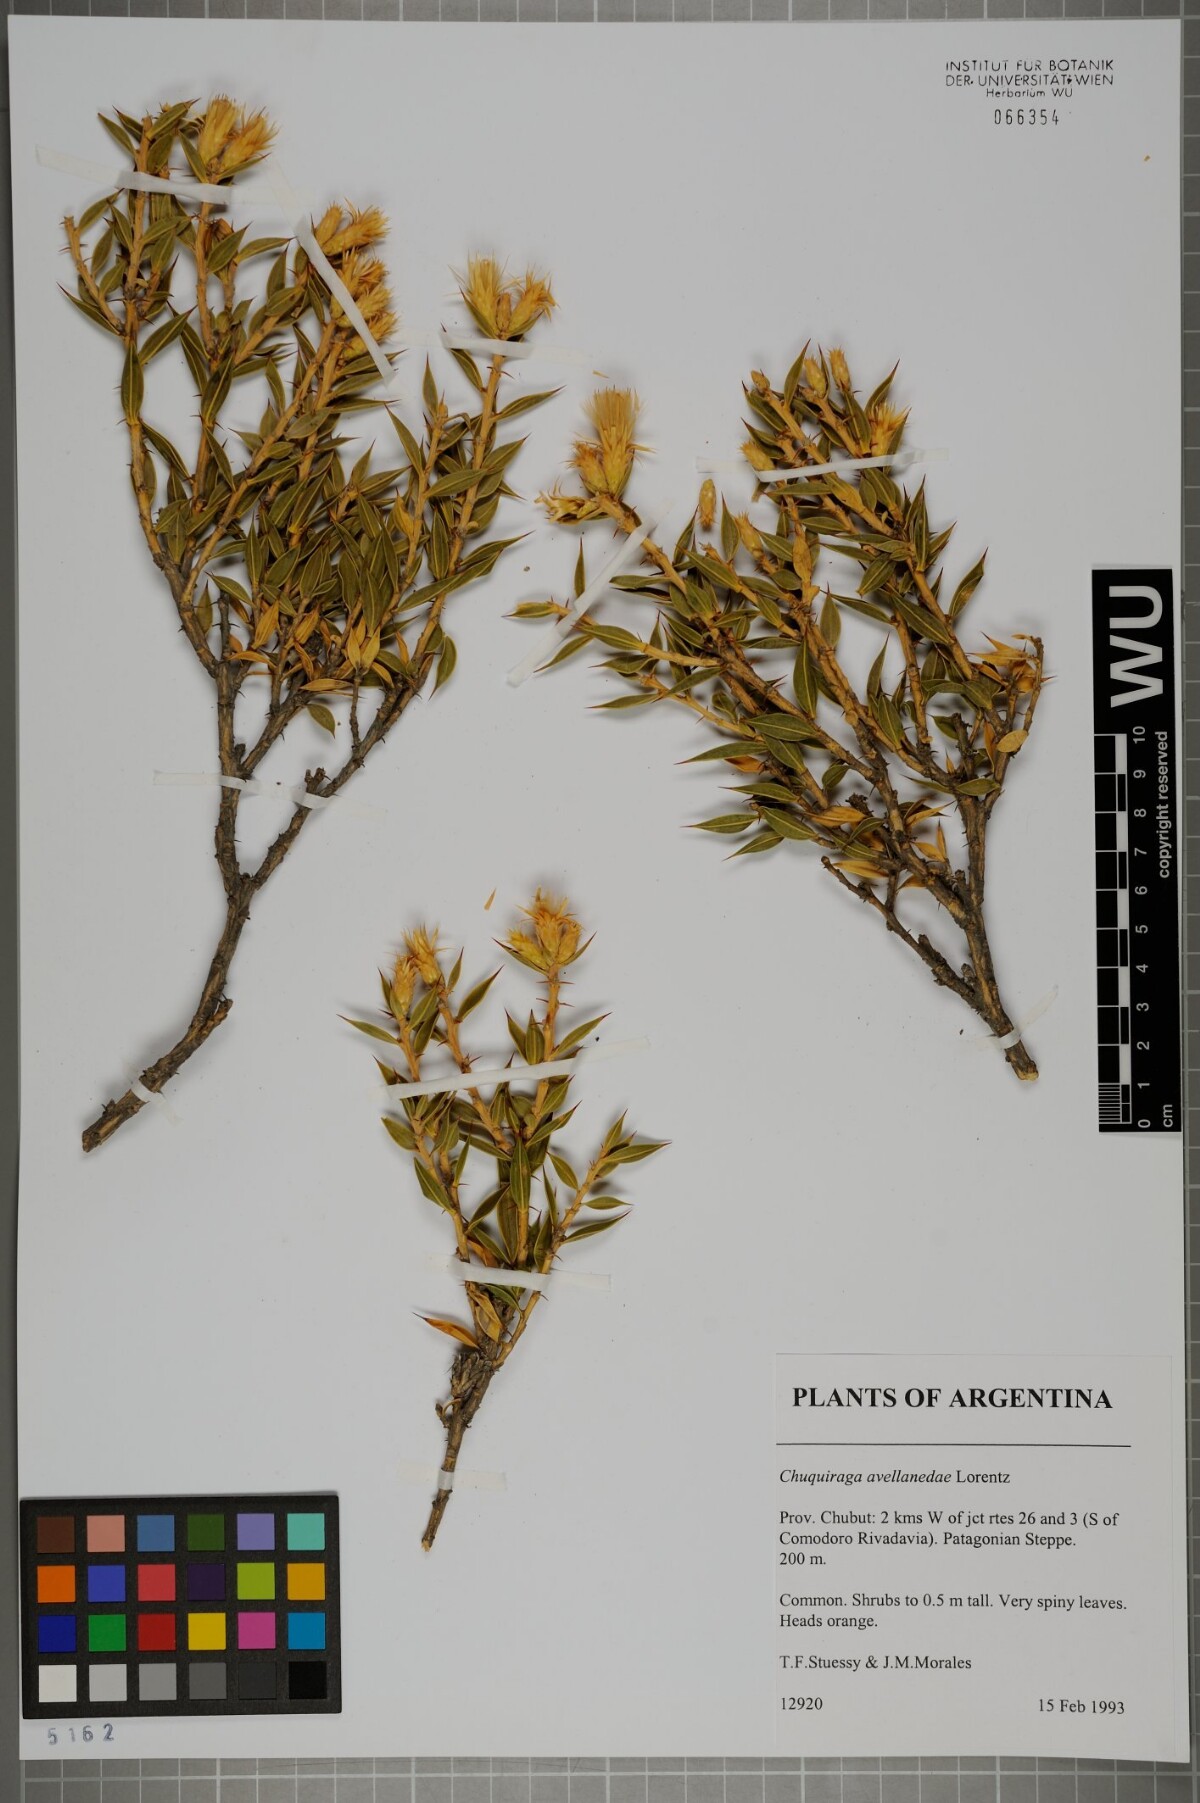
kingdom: Plantae
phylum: Tracheophyta
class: Magnoliopsida
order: Asterales
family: Asteraceae
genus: Chuquiraga
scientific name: Chuquiraga avellanedae
